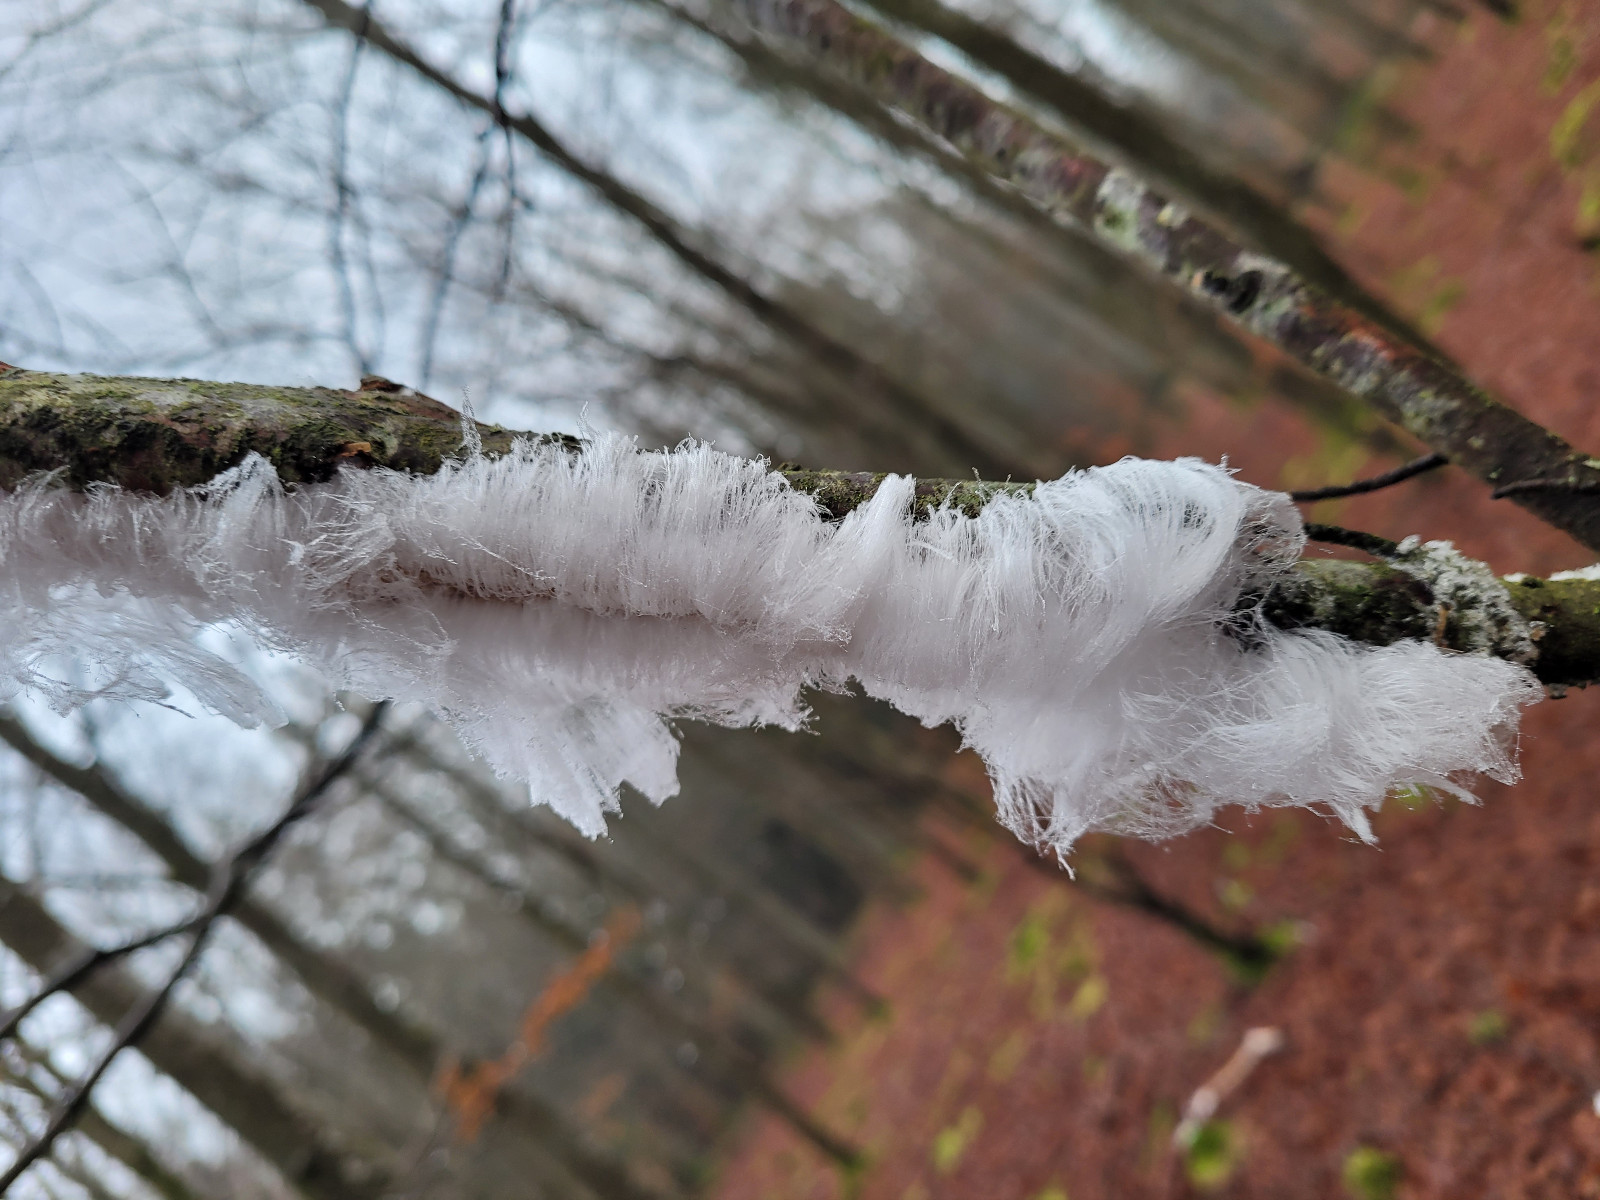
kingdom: Fungi
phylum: Basidiomycota
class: Tremellomycetes
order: Tremellales
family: Exidiaceae
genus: Exidiopsis
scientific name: Exidiopsis effusa
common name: smuk bævrehinde
